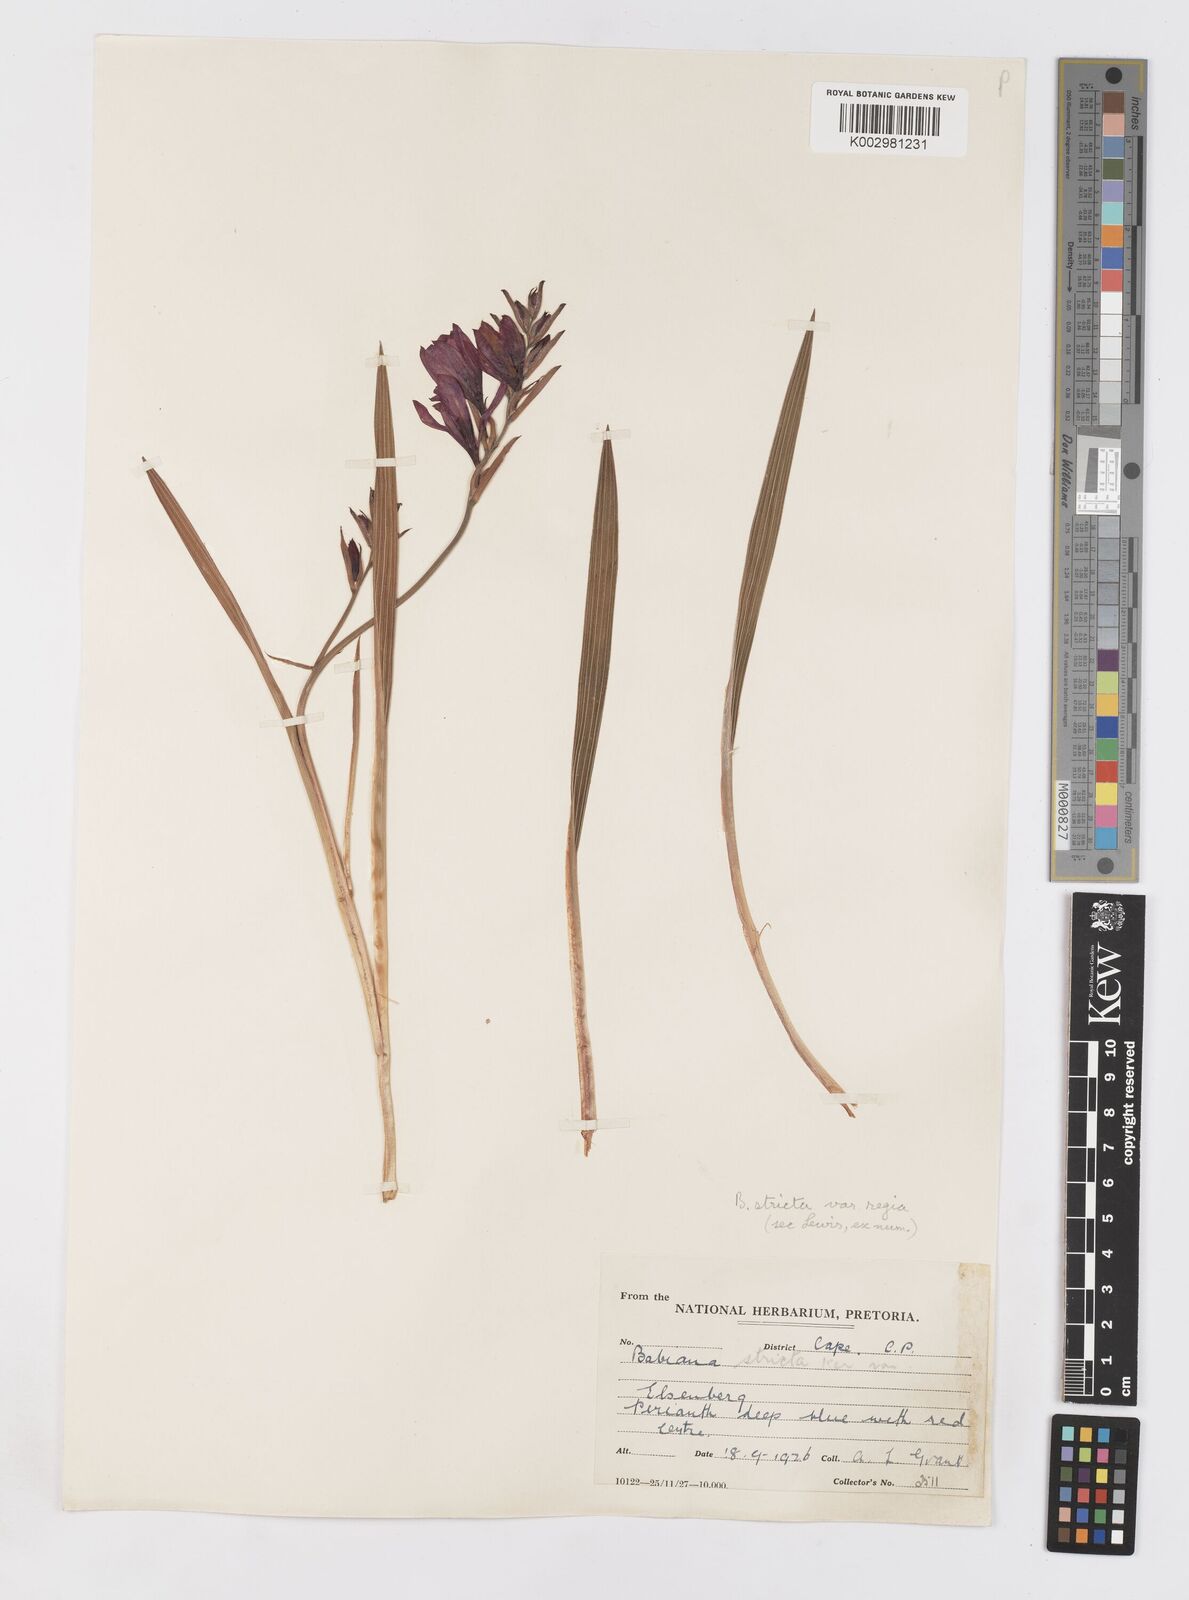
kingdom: Plantae
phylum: Tracheophyta
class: Liliopsida
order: Asparagales
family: Iridaceae
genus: Babiana
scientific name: Babiana regia
